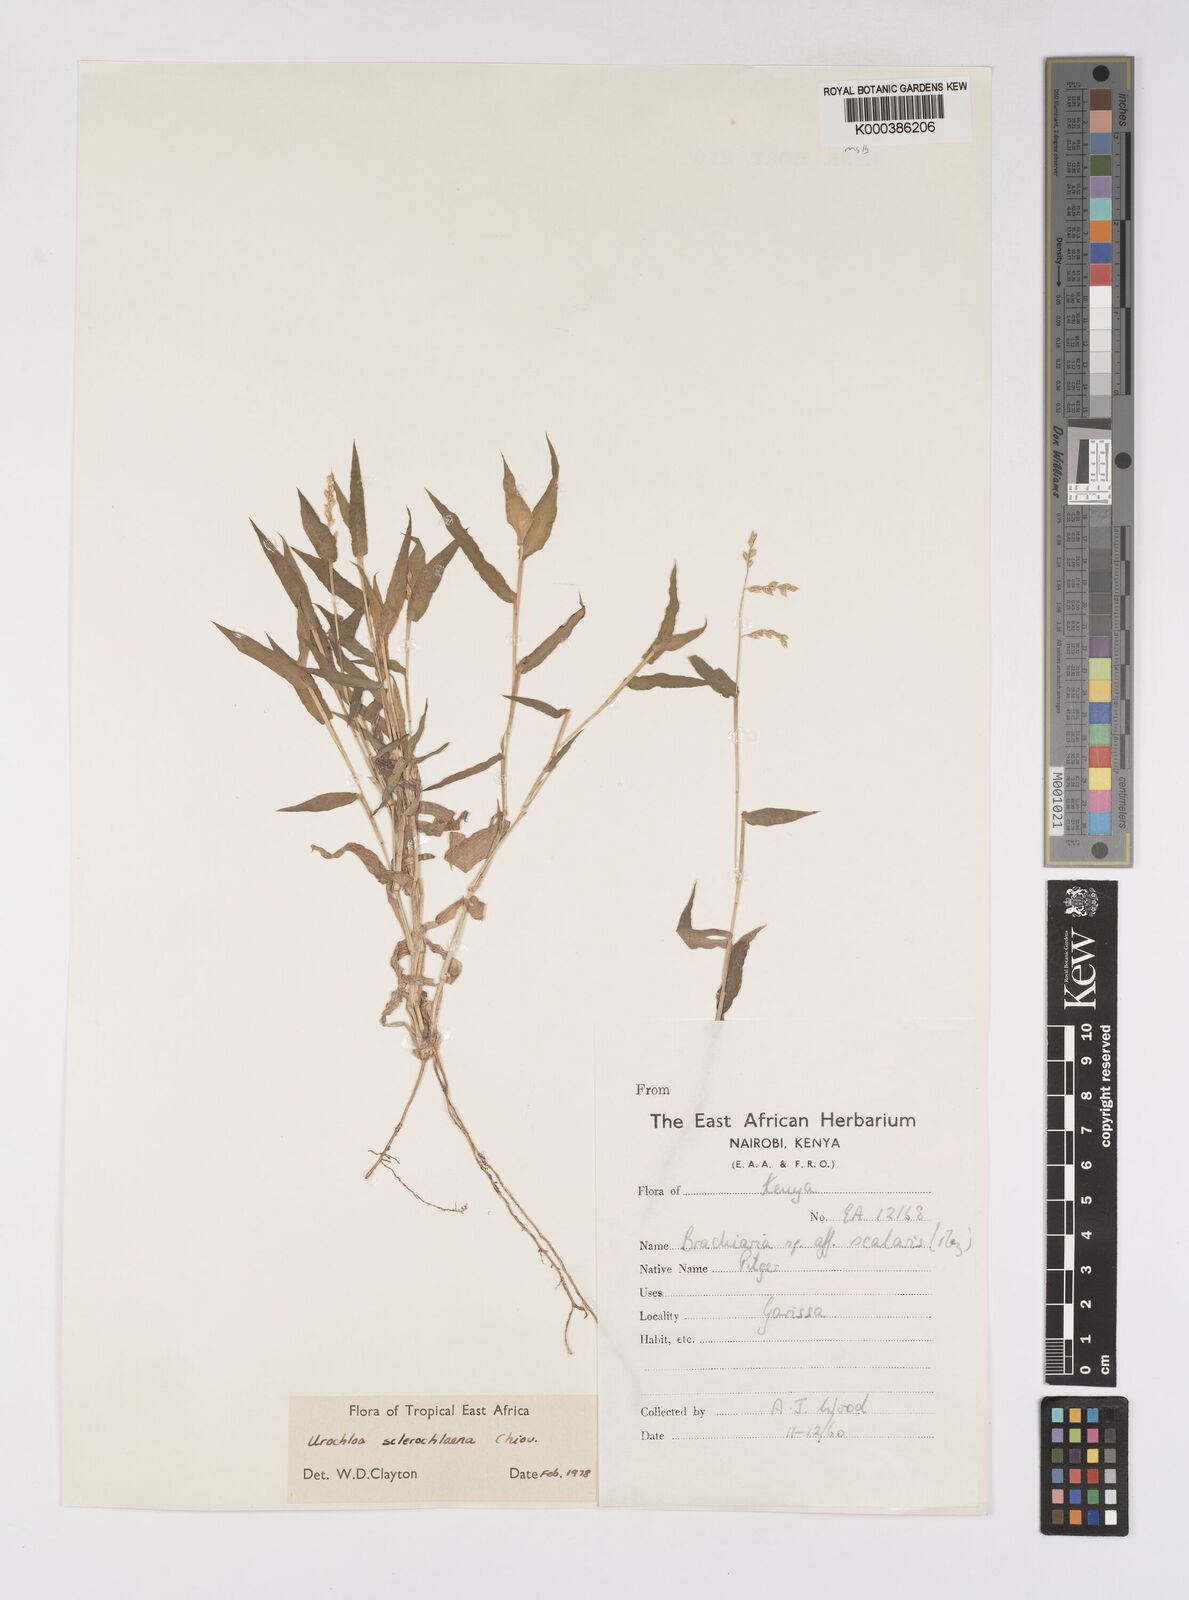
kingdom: Plantae
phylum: Tracheophyta
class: Liliopsida
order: Poales
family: Poaceae
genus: Urochloa
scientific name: Urochloa sclerochlaena
